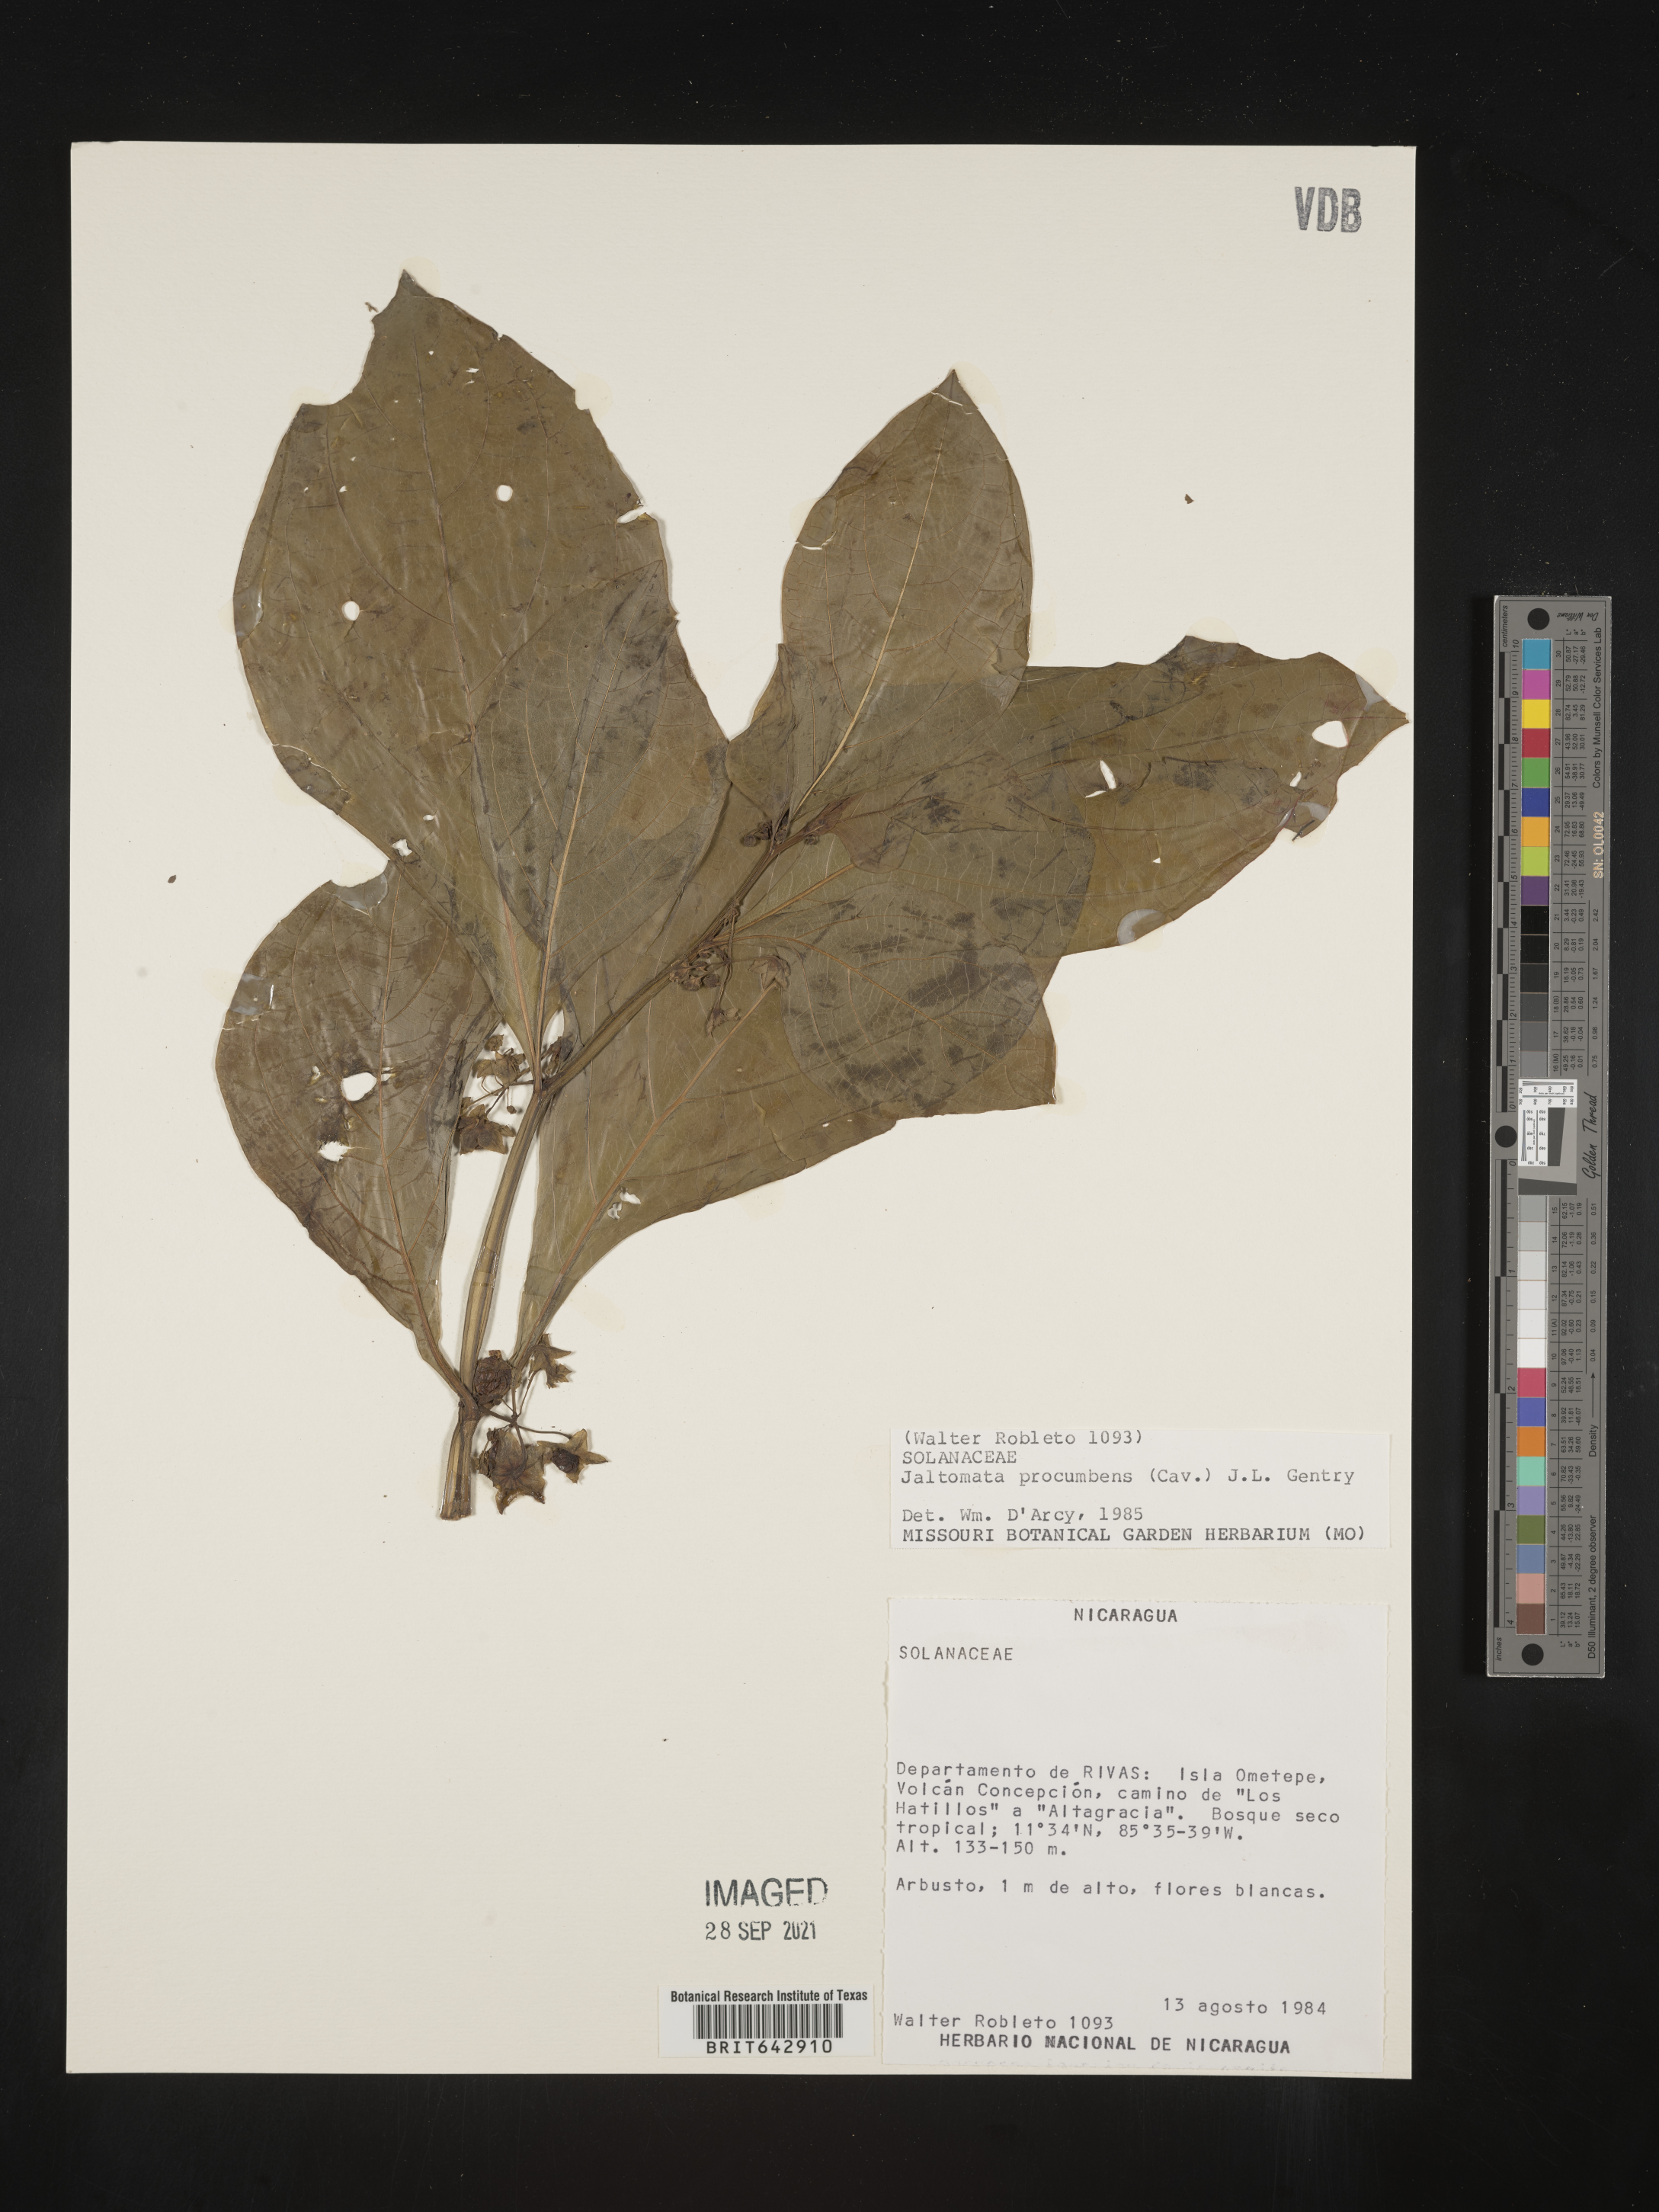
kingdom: Plantae
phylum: Tracheophyta
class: Magnoliopsida
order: Solanales
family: Solanaceae
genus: Jaltomata
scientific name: Jaltomata procumbens
